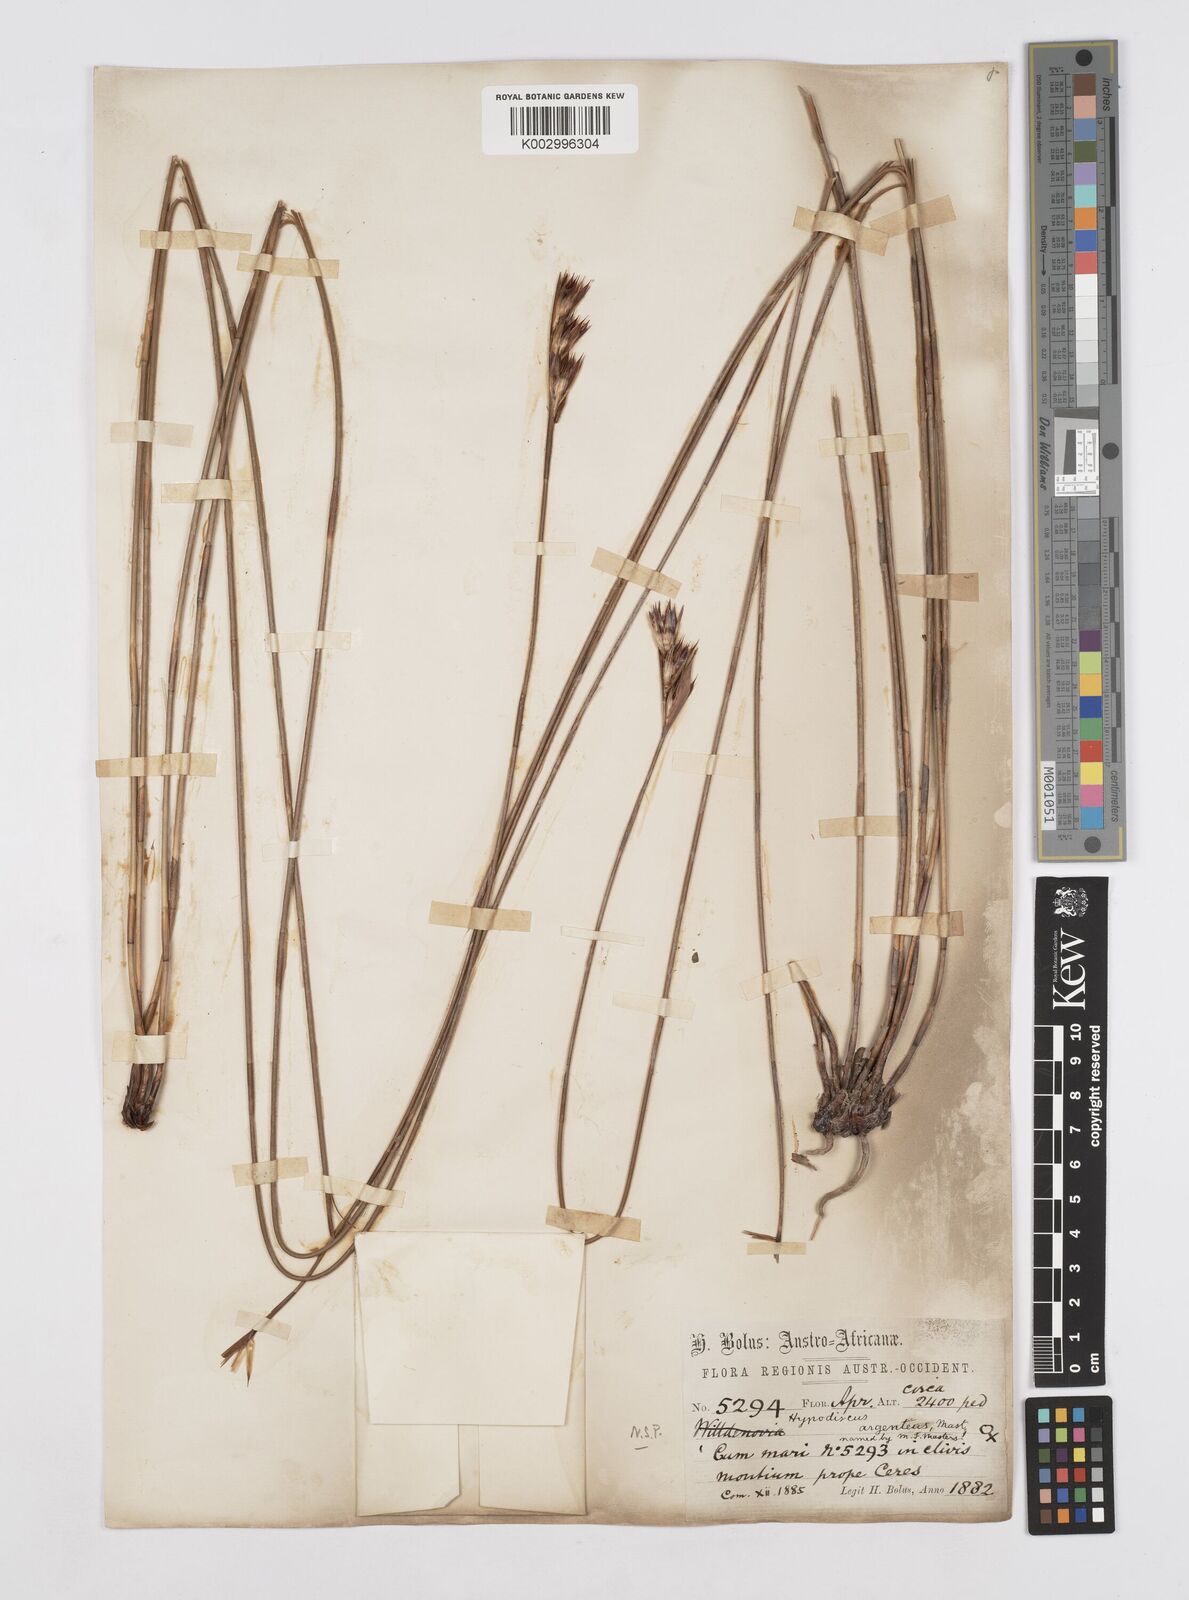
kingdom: Plantae
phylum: Tracheophyta
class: Liliopsida
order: Poales
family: Restionaceae
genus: Hypodiscus
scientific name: Hypodiscus argenteus
